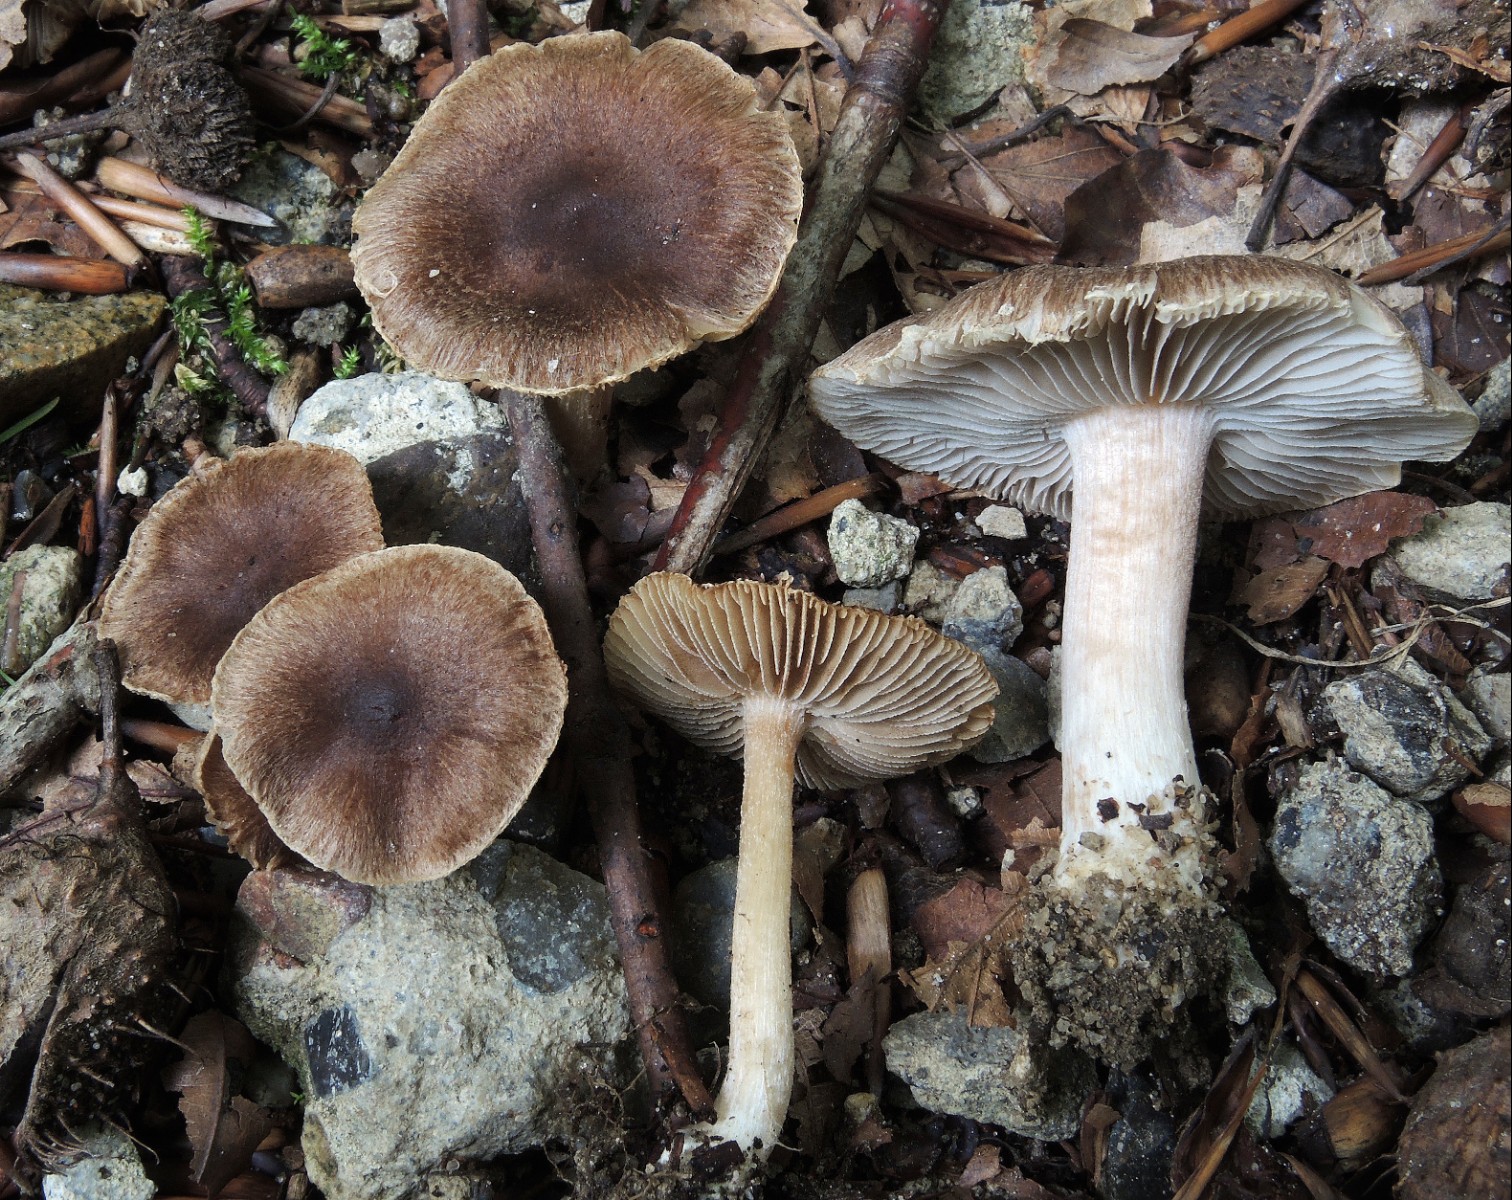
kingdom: Fungi
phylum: Basidiomycota
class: Agaricomycetes
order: Agaricales
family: Inocybaceae
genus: Inocybe
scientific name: Inocybe
